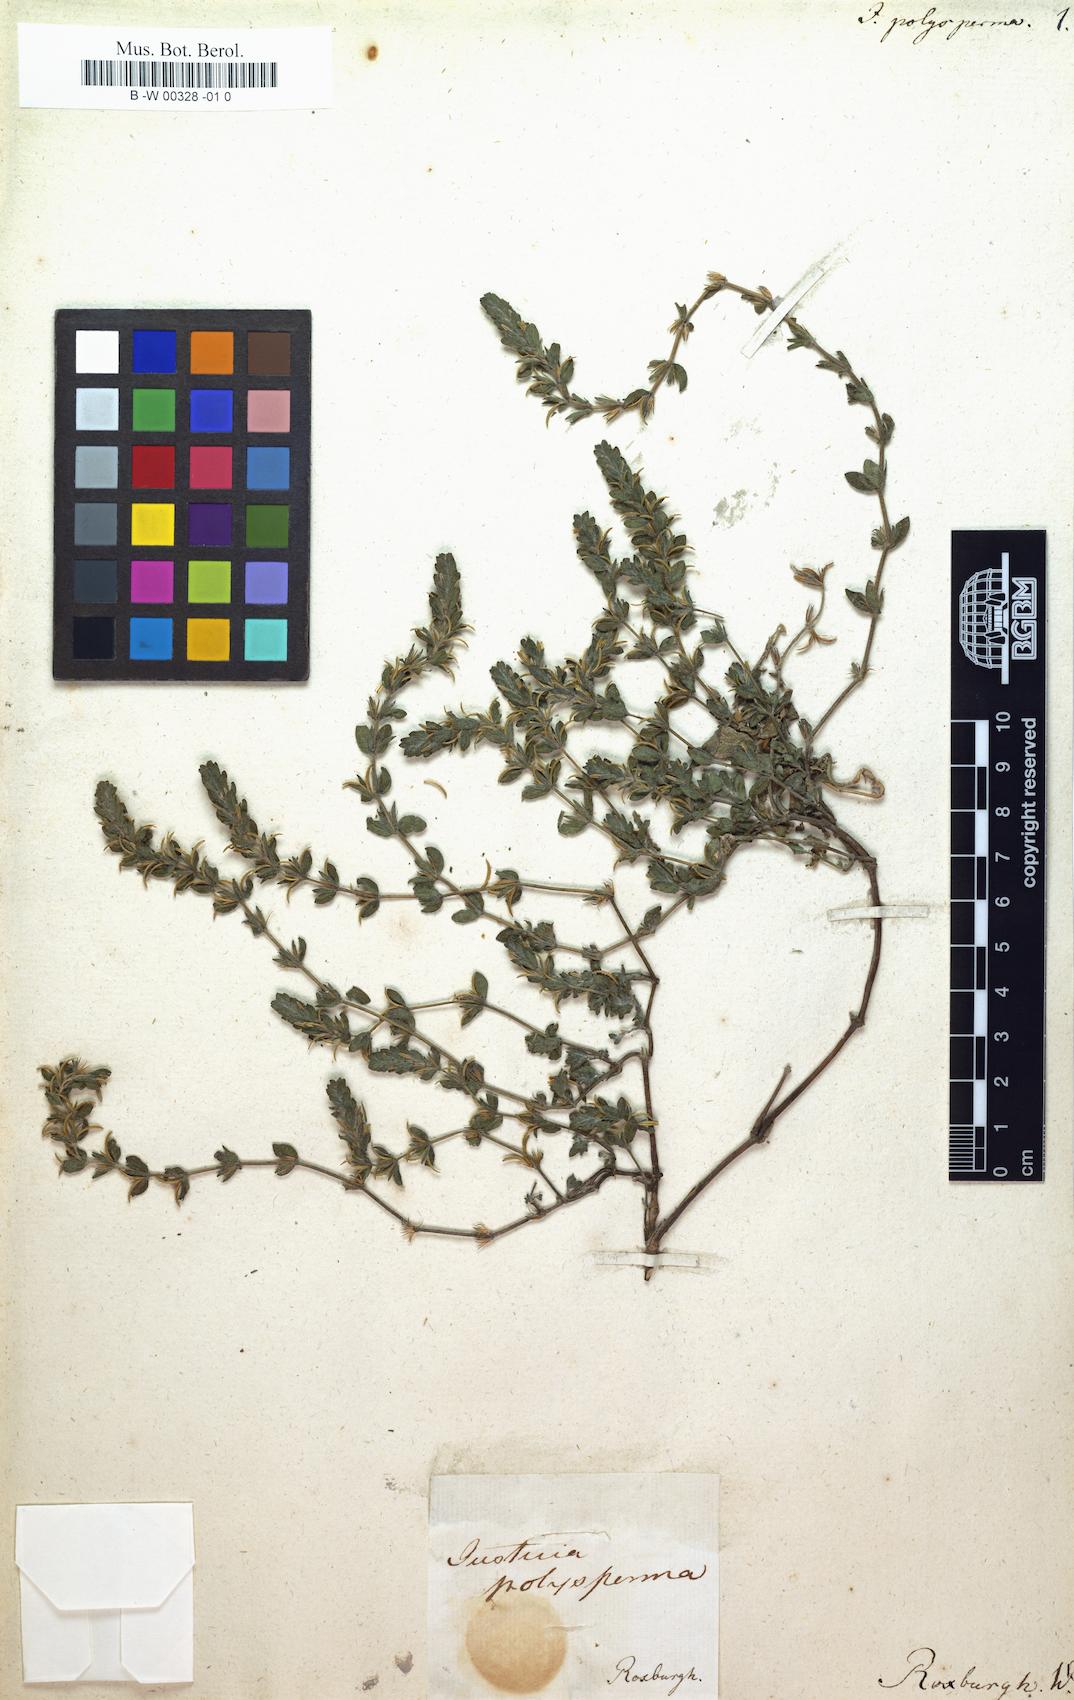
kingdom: Plantae
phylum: Tracheophyta
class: Magnoliopsida
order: Lamiales
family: Acanthaceae
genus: Hygrophila
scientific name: Hygrophila polysperma
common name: Indian swampweed
